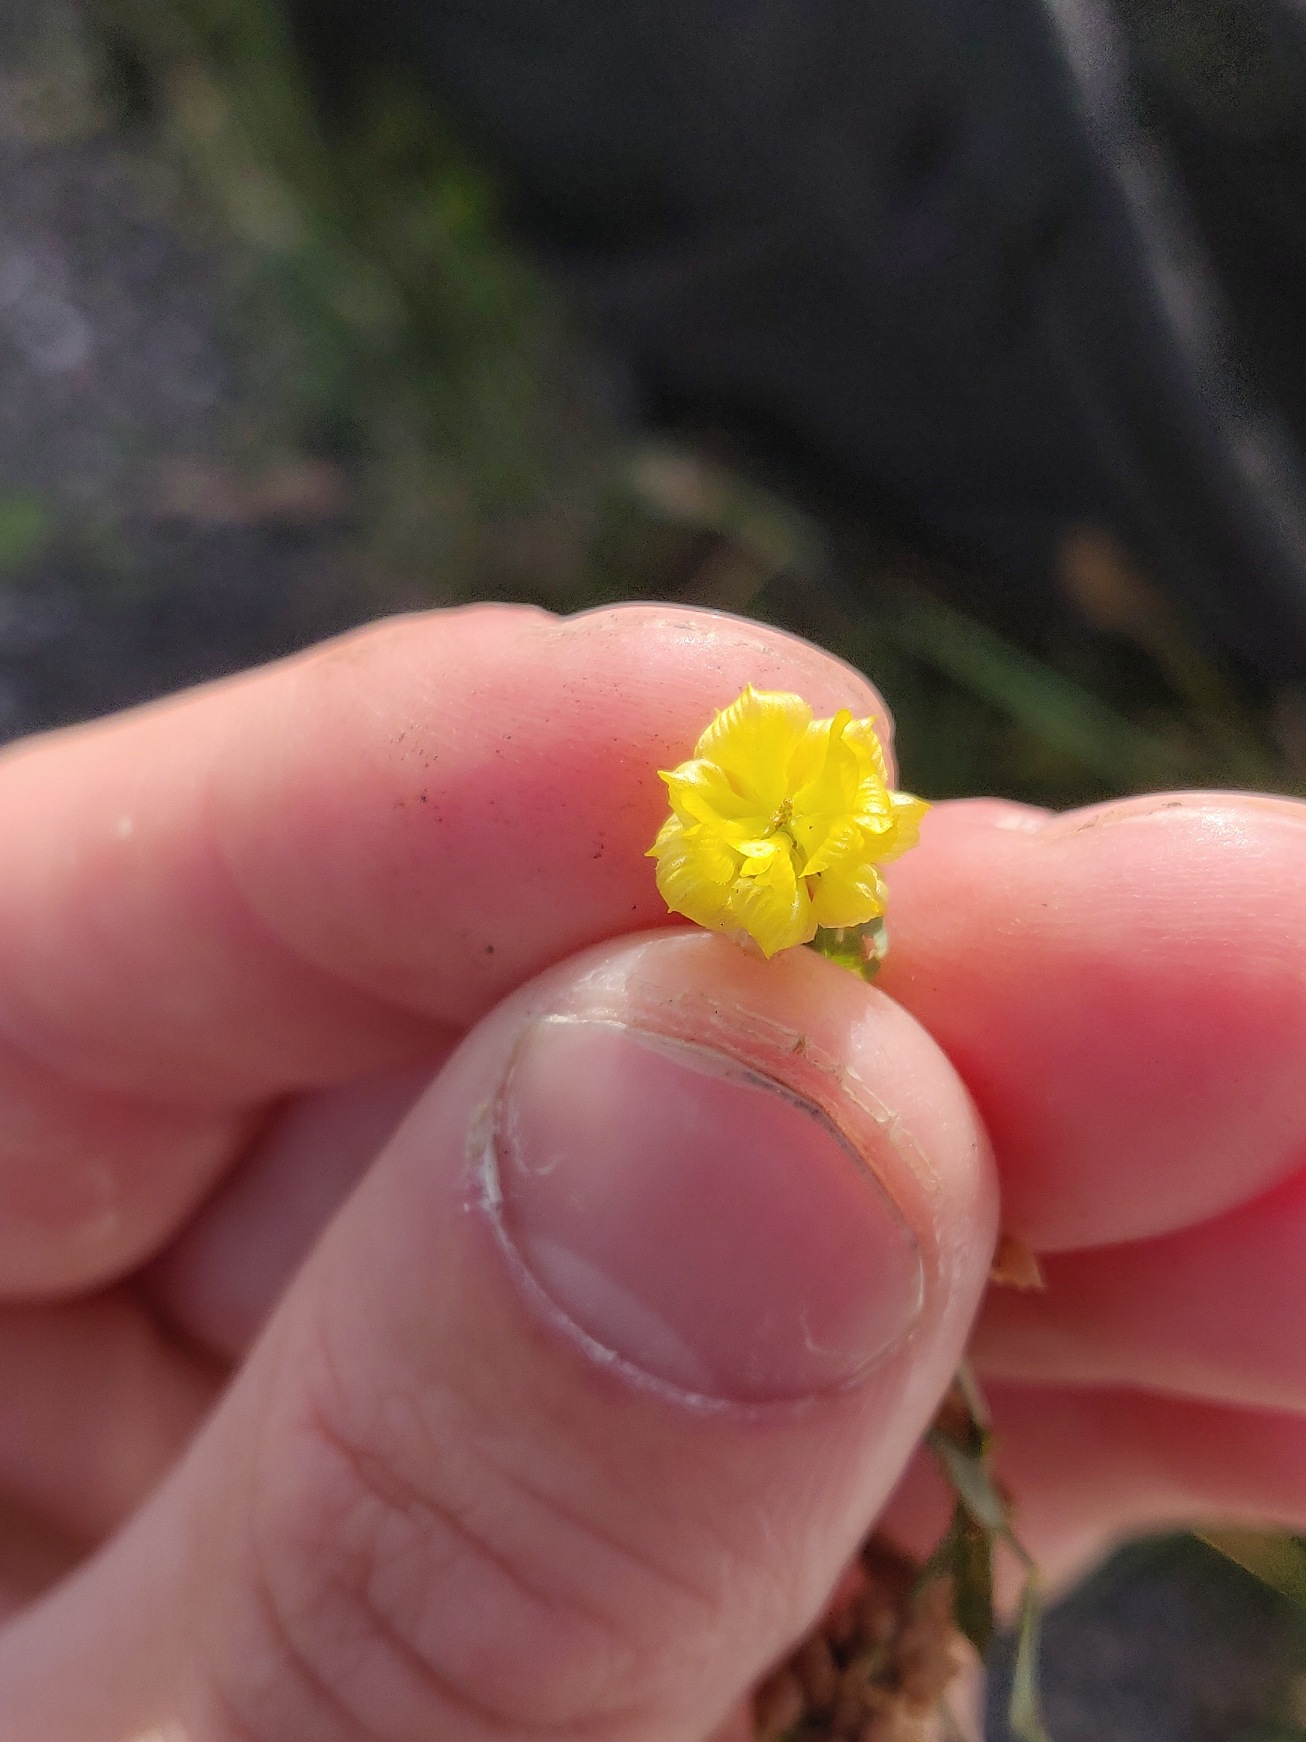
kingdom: Plantae
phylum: Tracheophyta
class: Magnoliopsida
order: Fabales
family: Fabaceae
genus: Trifolium
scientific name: Trifolium campestre
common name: Gul kløver
